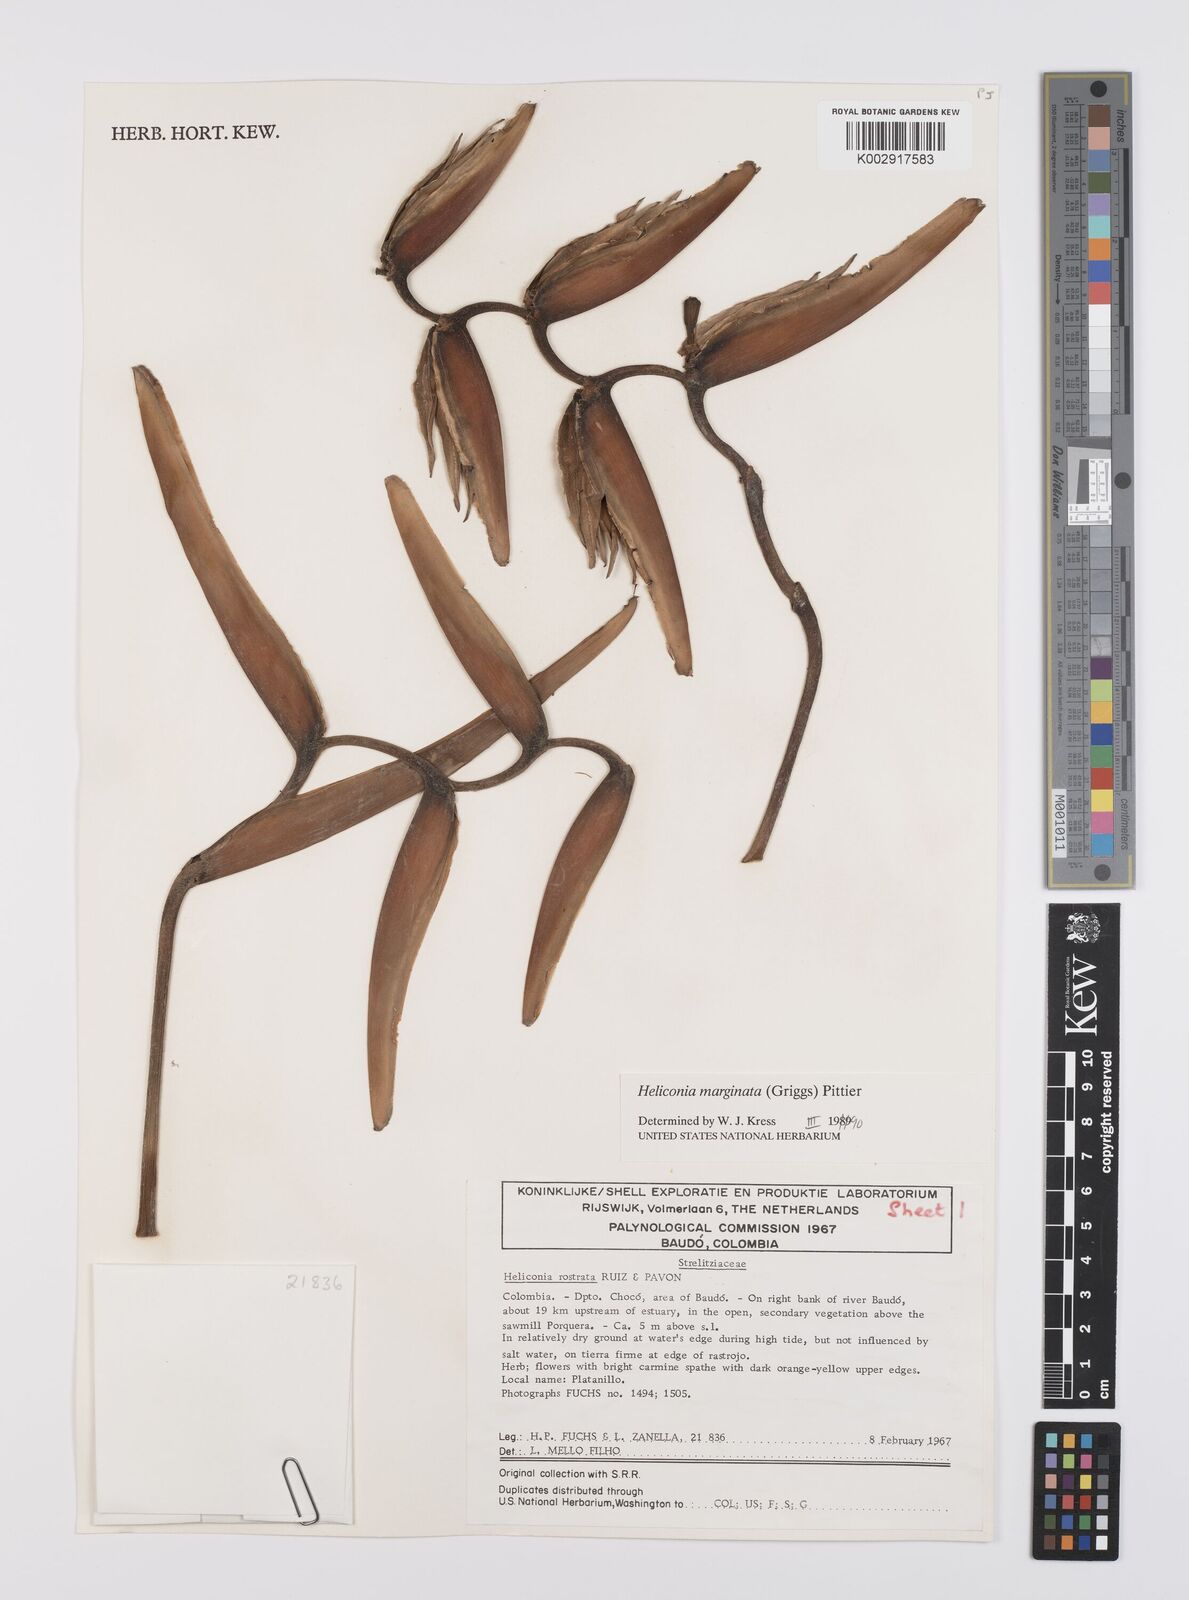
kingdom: Plantae
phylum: Tracheophyta
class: Liliopsida
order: Zingiberales
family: Heliconiaceae
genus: Heliconia
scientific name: Heliconia marginata
